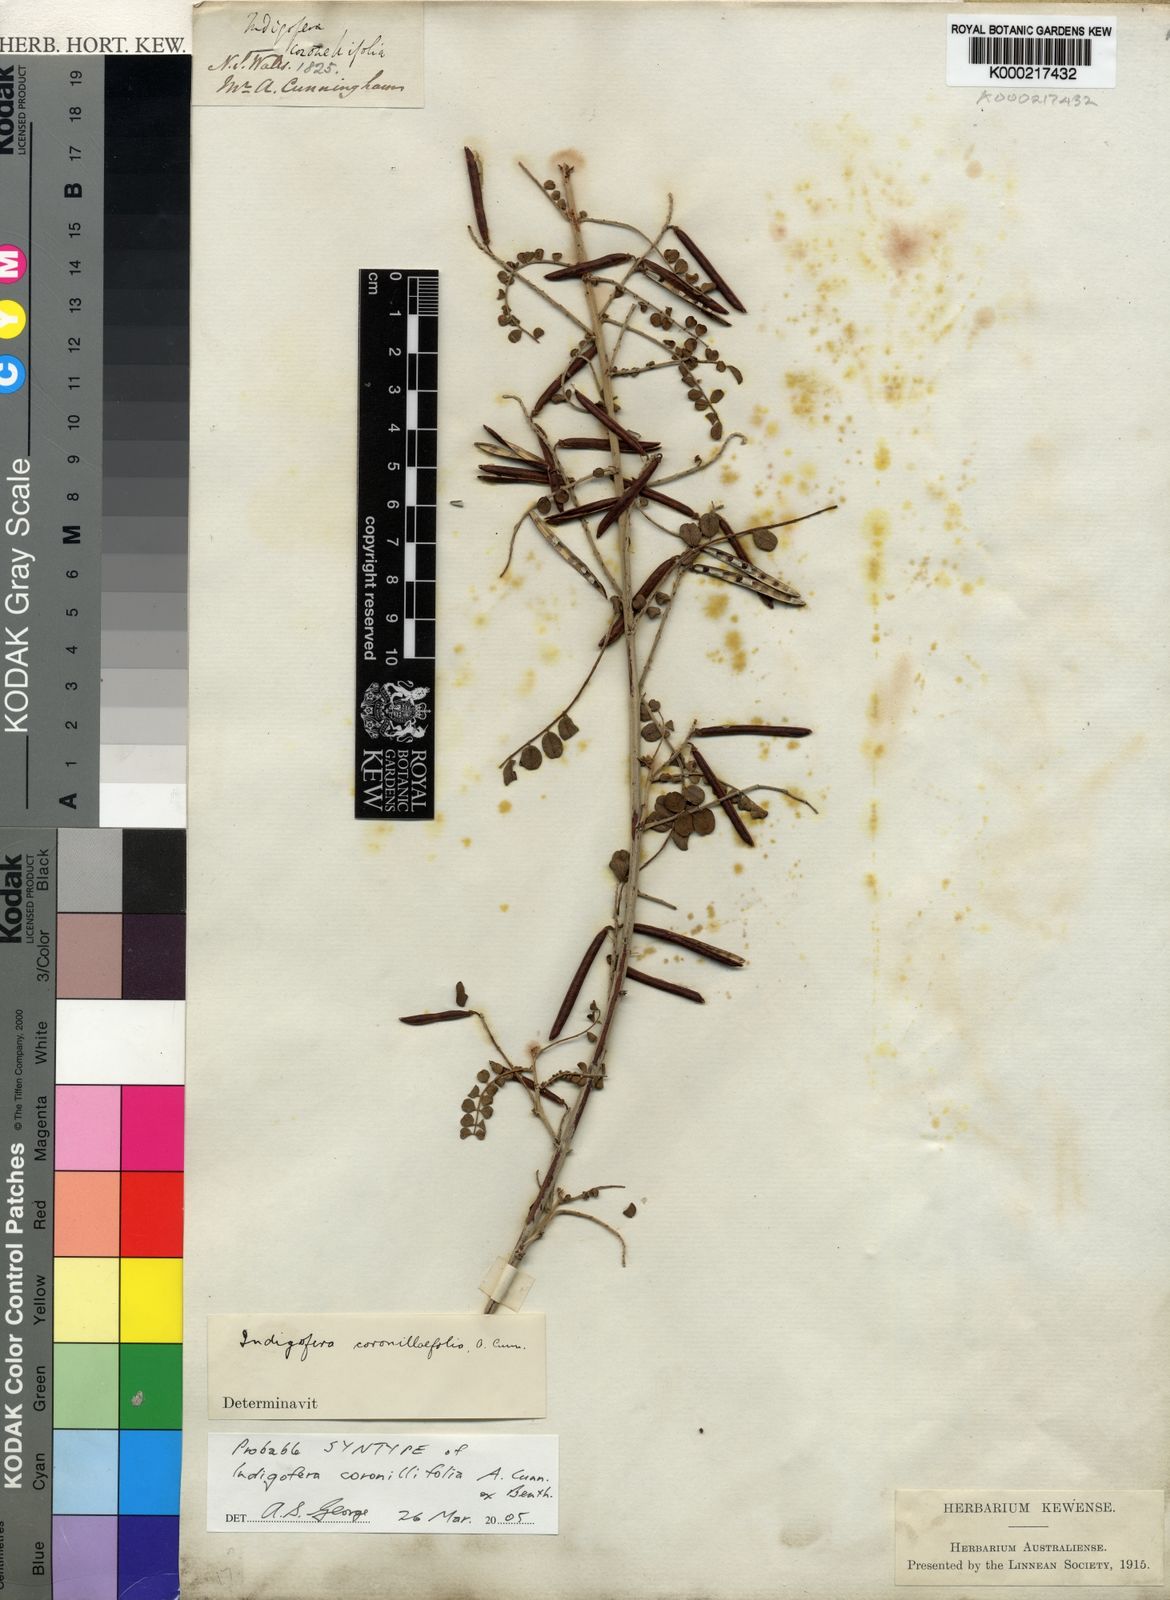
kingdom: Plantae
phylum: Tracheophyta
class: Magnoliopsida
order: Fabales
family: Fabaceae
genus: Indigofera
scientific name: Indigofera coronillifolia
